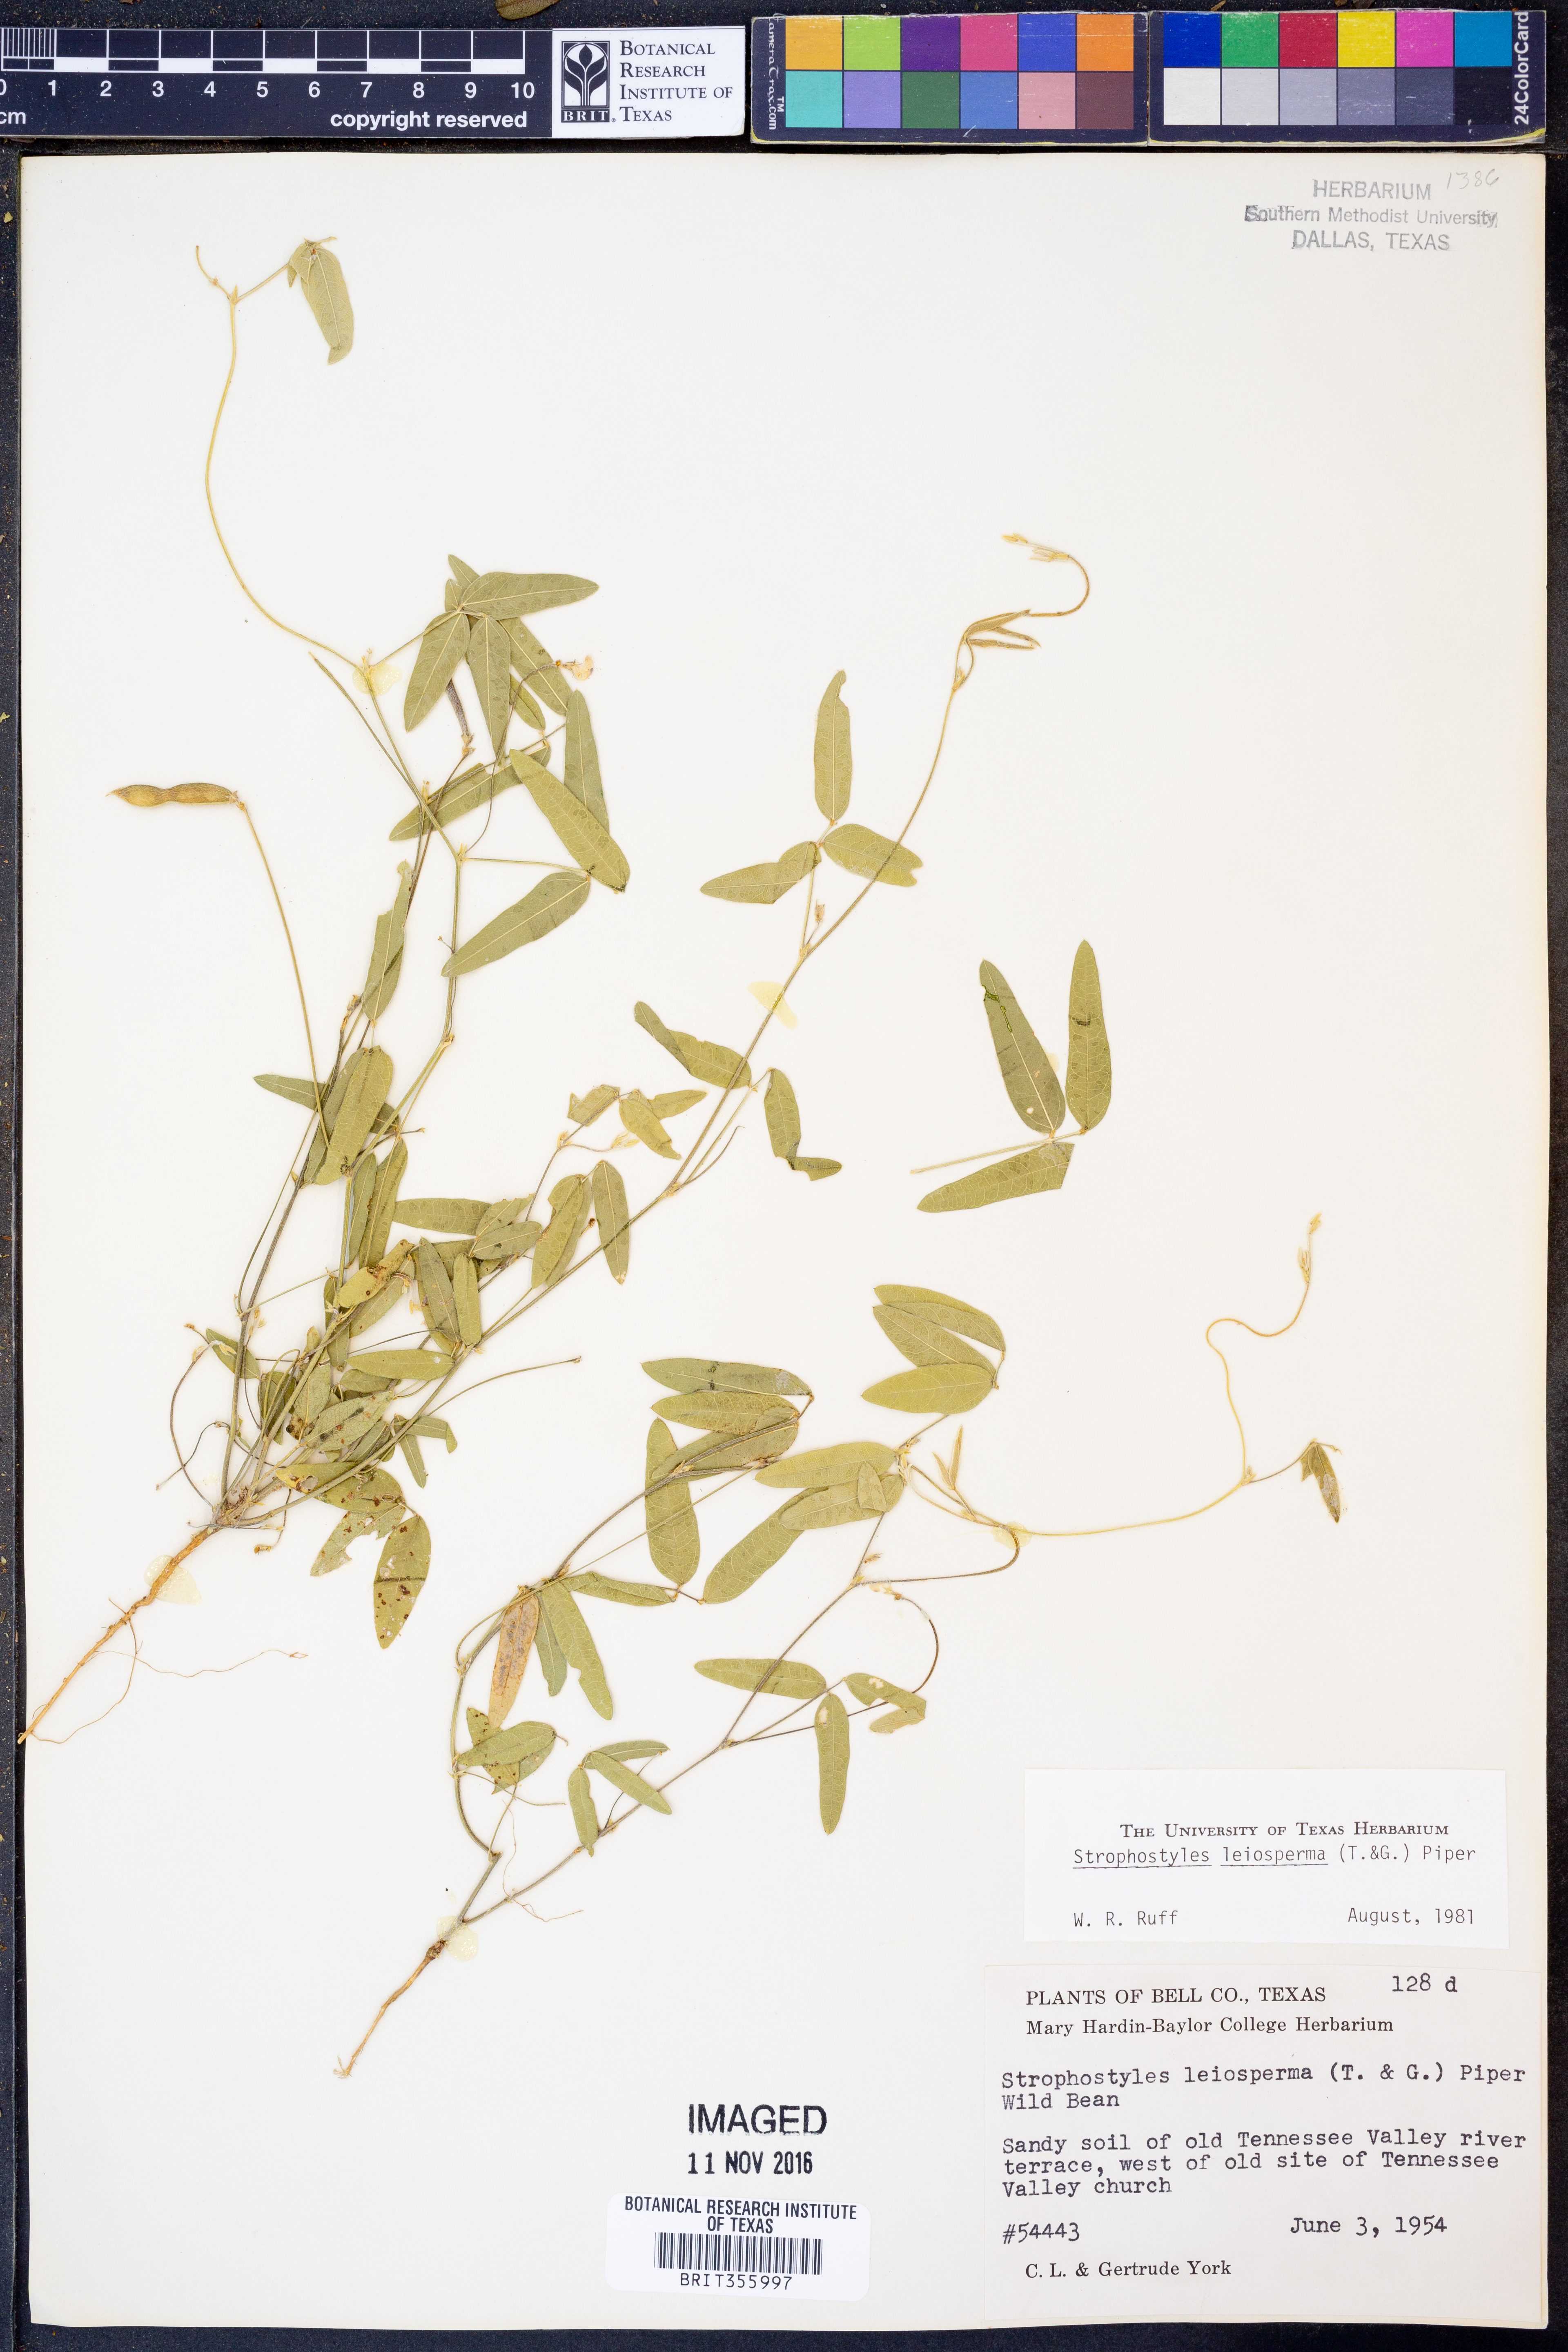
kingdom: Plantae
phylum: Tracheophyta
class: Magnoliopsida
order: Fabales
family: Fabaceae
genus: Strophostyles
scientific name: Strophostyles leiosperma
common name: Smooth-seed wild bean
